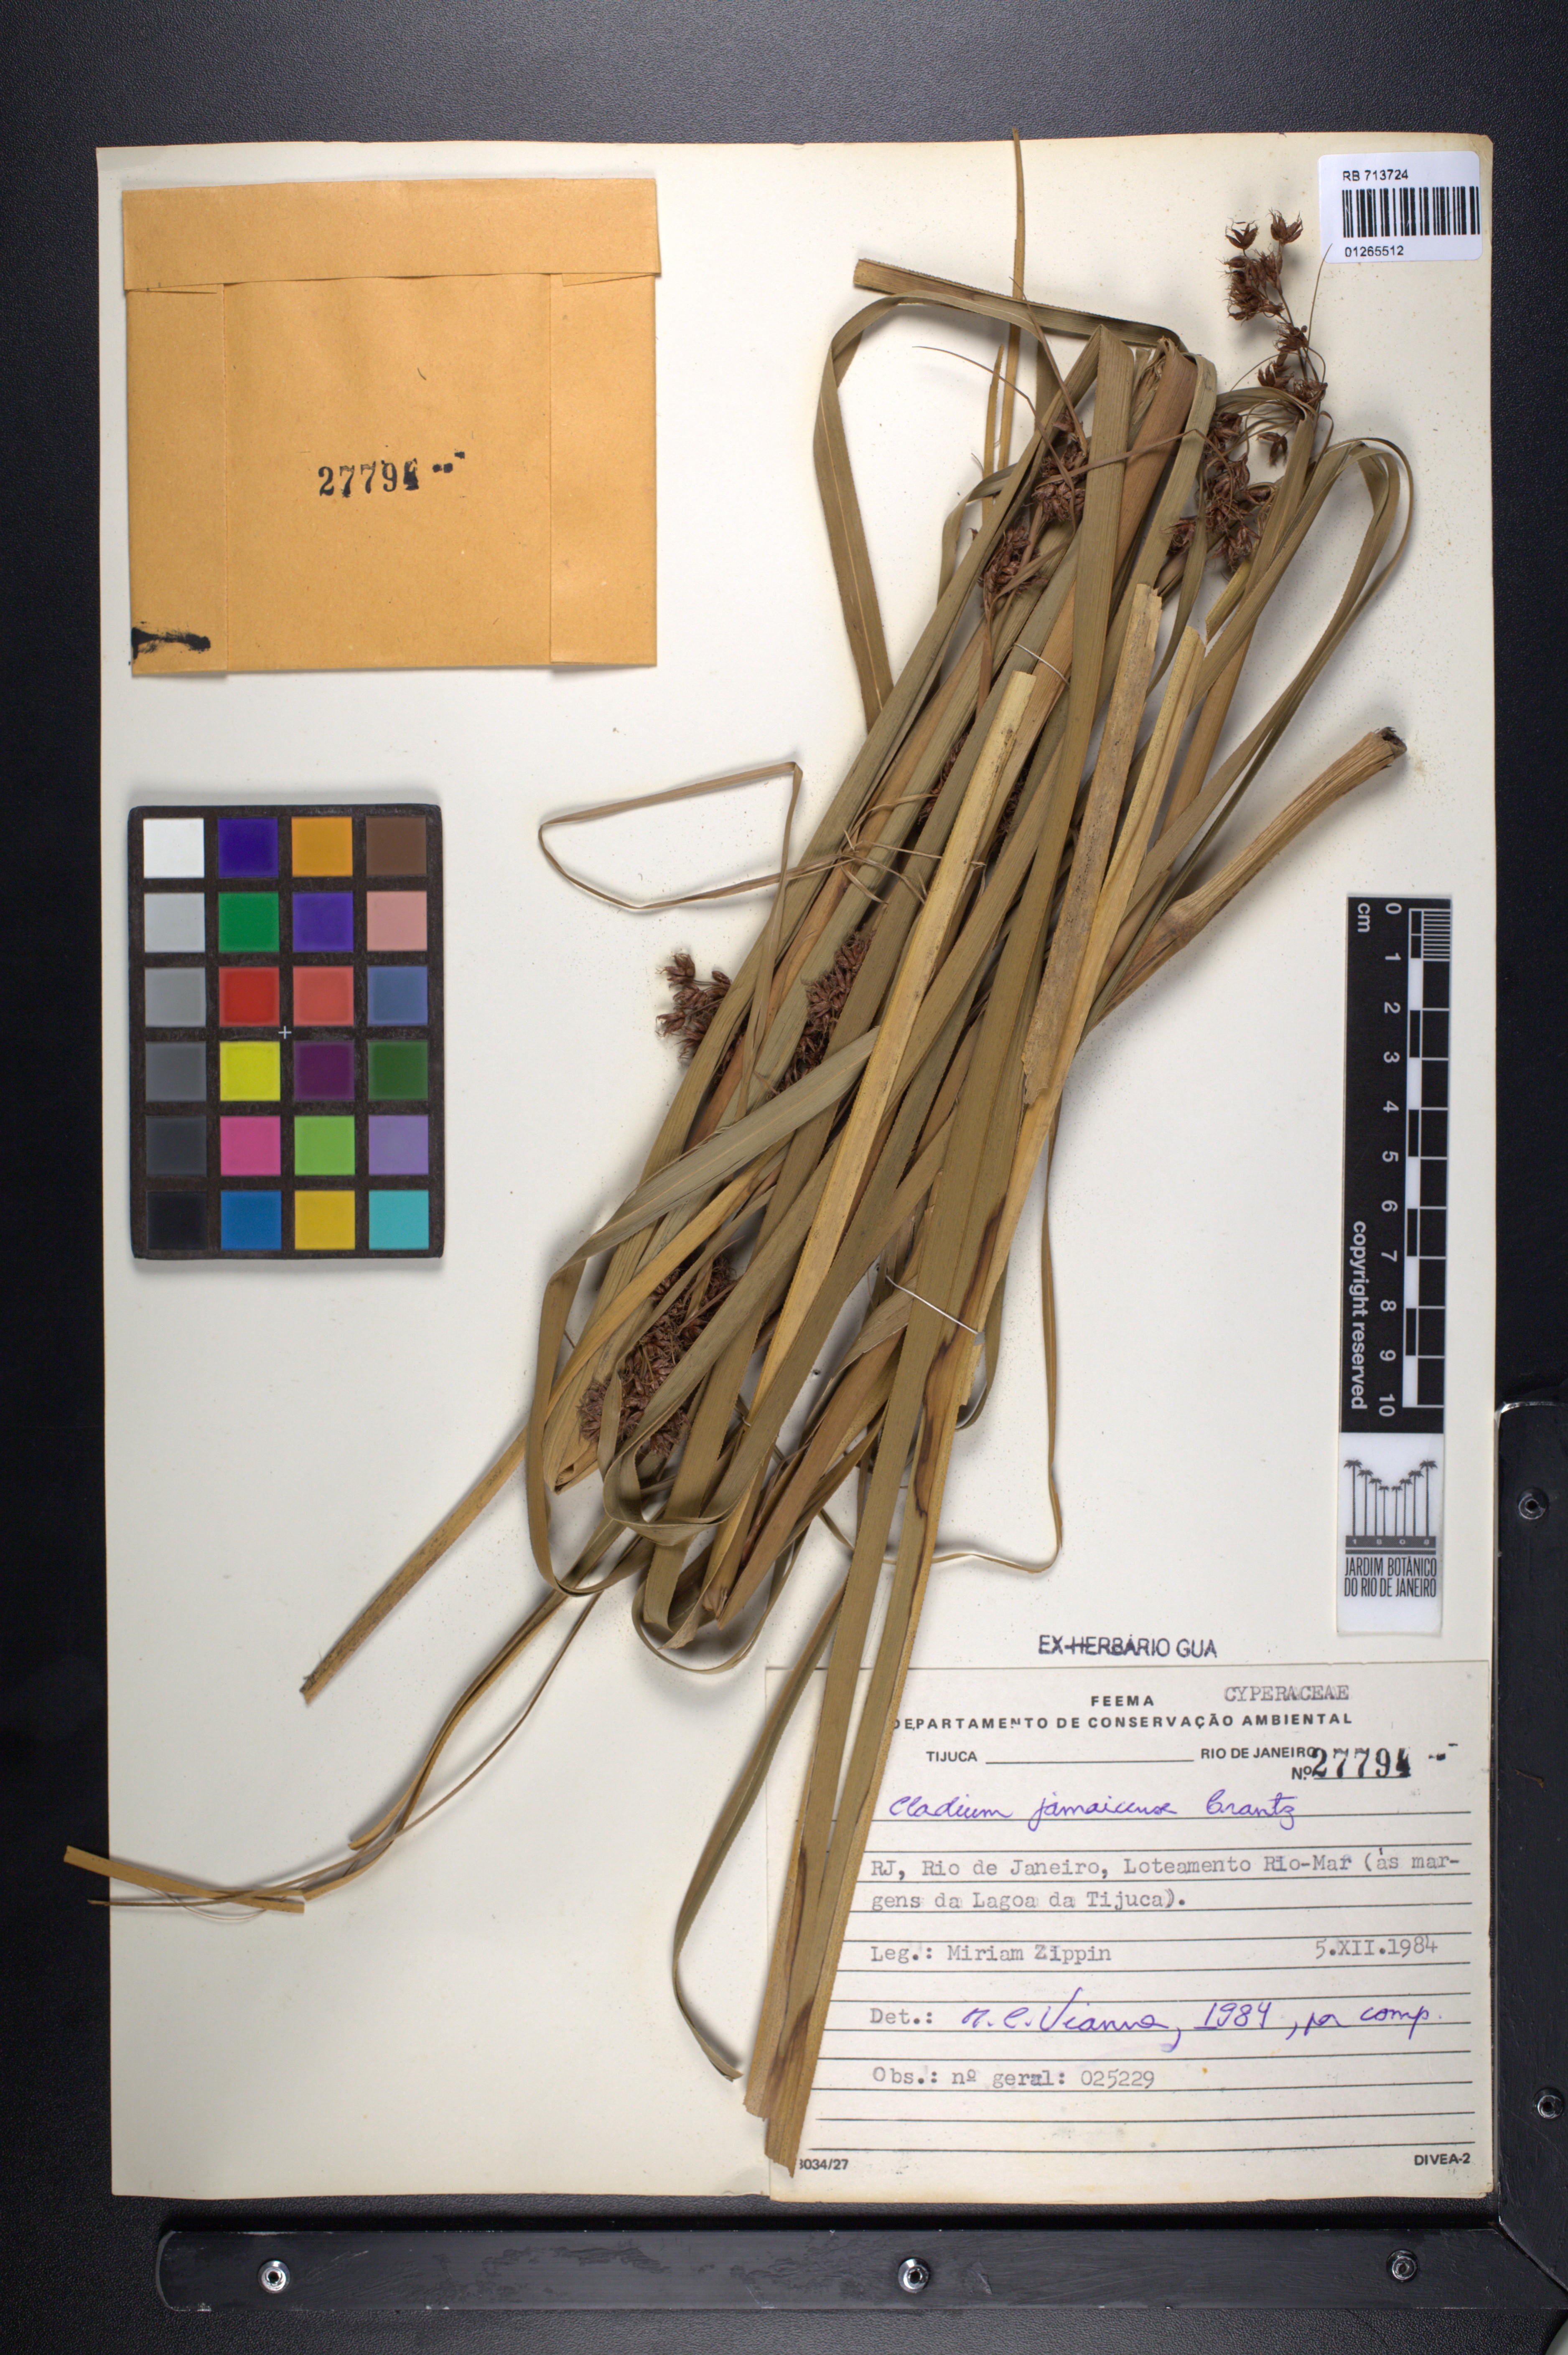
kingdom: Plantae
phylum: Tracheophyta
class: Liliopsida
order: Poales
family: Cyperaceae
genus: Cladium
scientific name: Cladium mariscus
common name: Great fen-sedge
